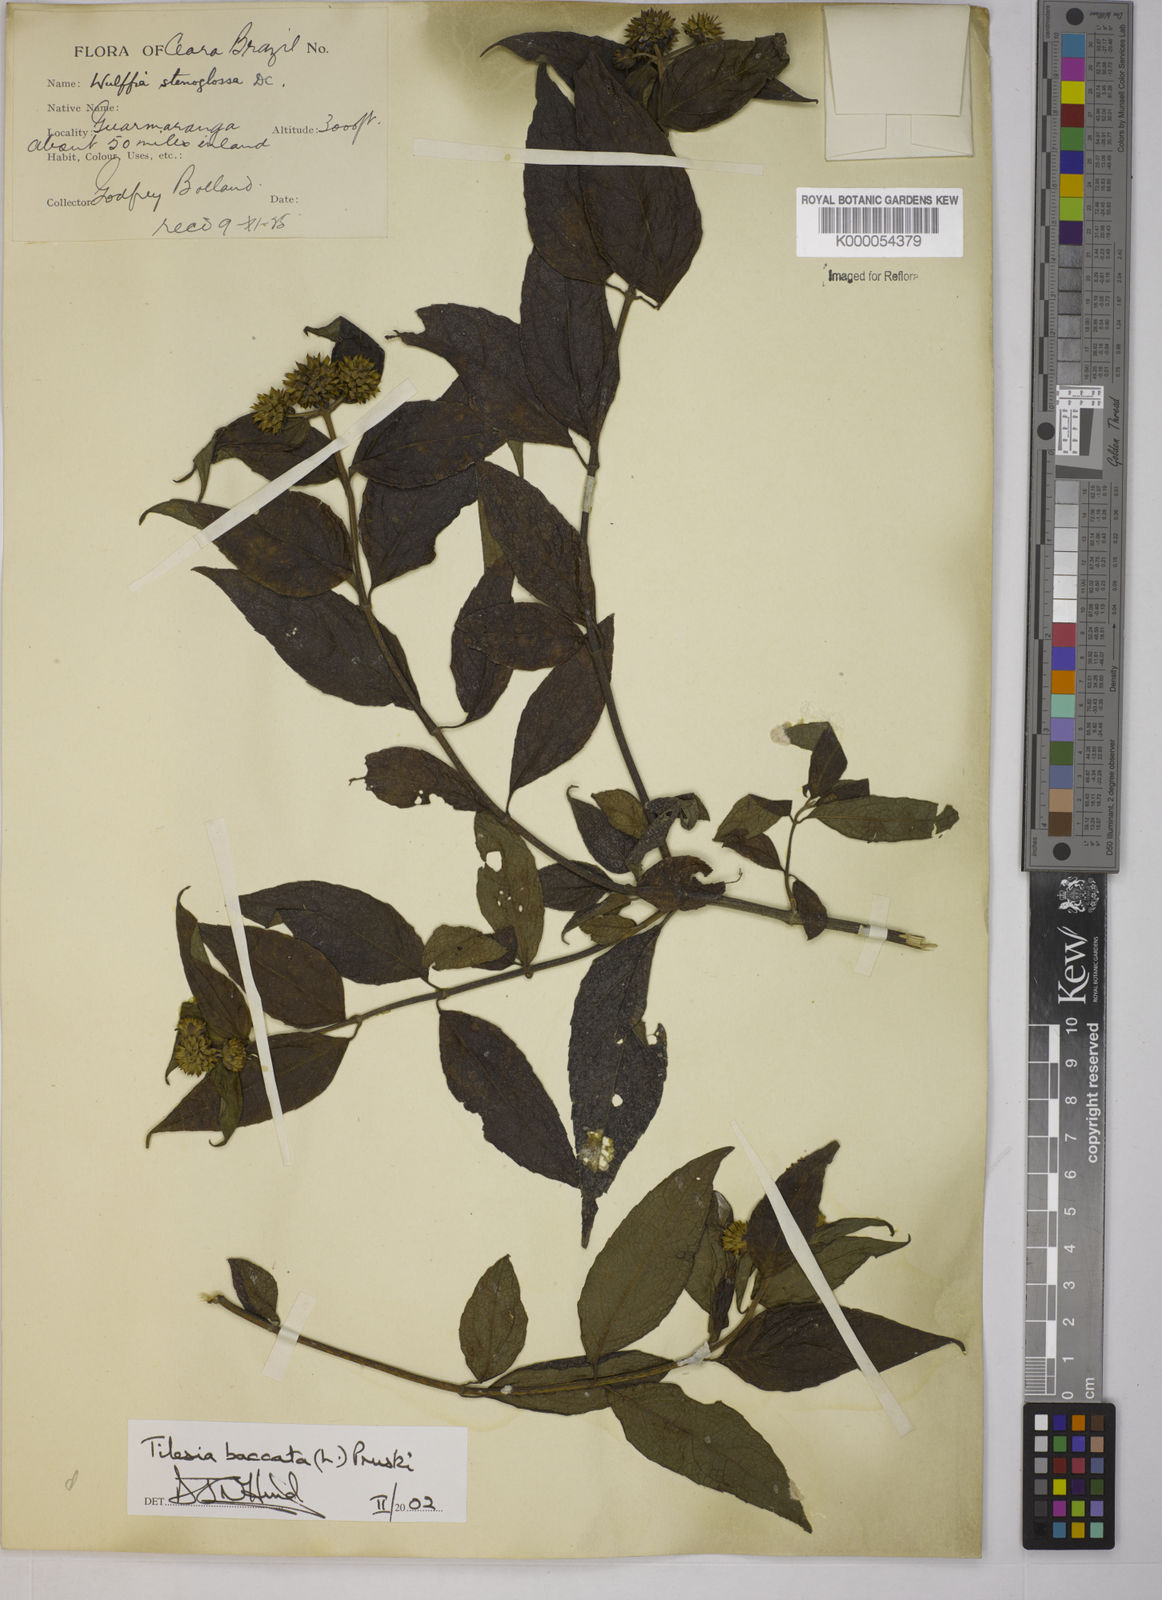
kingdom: Plantae
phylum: Tracheophyta
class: Magnoliopsida
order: Asterales
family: Asteraceae
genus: Tilesia
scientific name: Tilesia baccata
